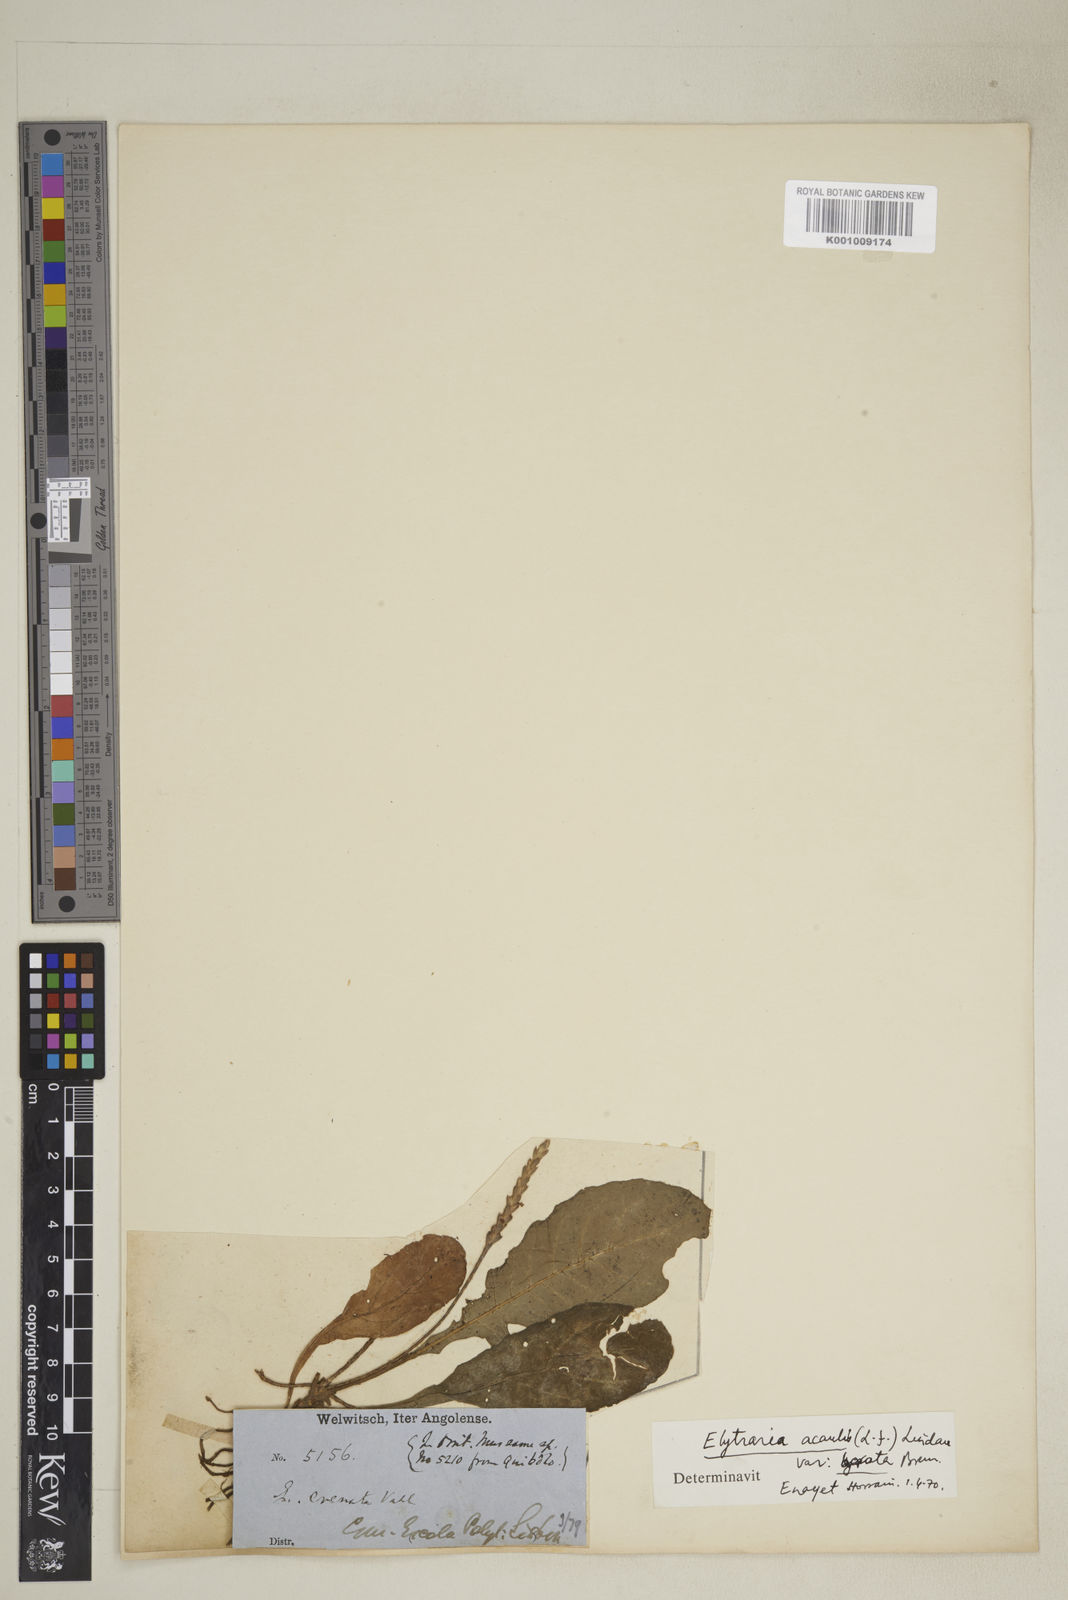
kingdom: Plantae
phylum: Tracheophyta
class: Magnoliopsida
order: Lamiales
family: Acanthaceae
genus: Elytraria
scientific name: Elytraria acaulis
